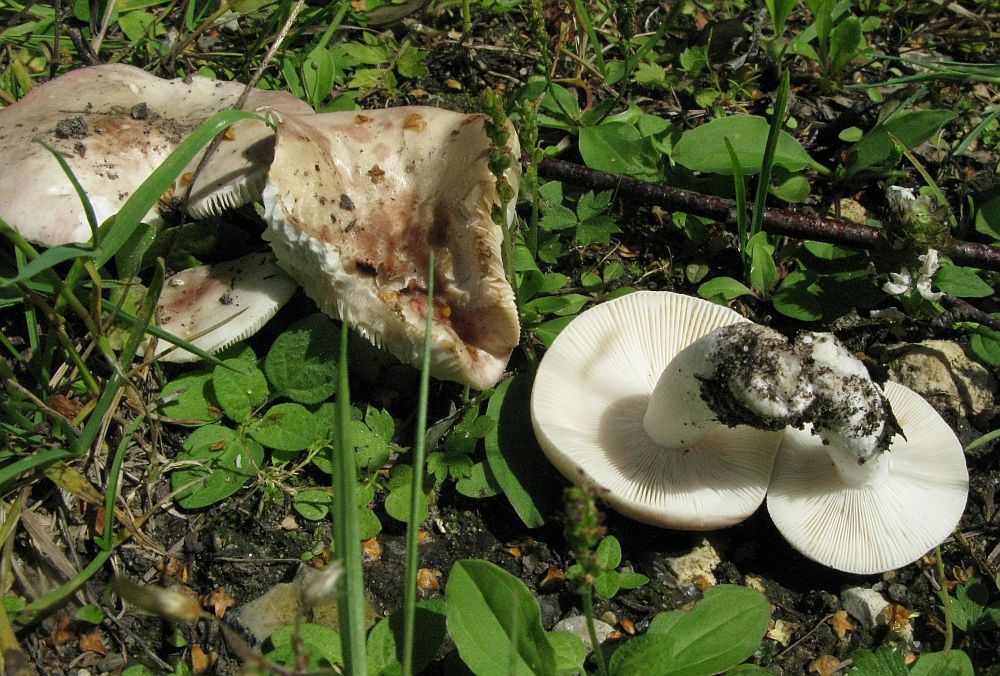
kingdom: Fungi
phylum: Basidiomycota
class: Agaricomycetes
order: Russulales
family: Russulaceae
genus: Russula
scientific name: Russula depallens
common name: falmende skørhat
